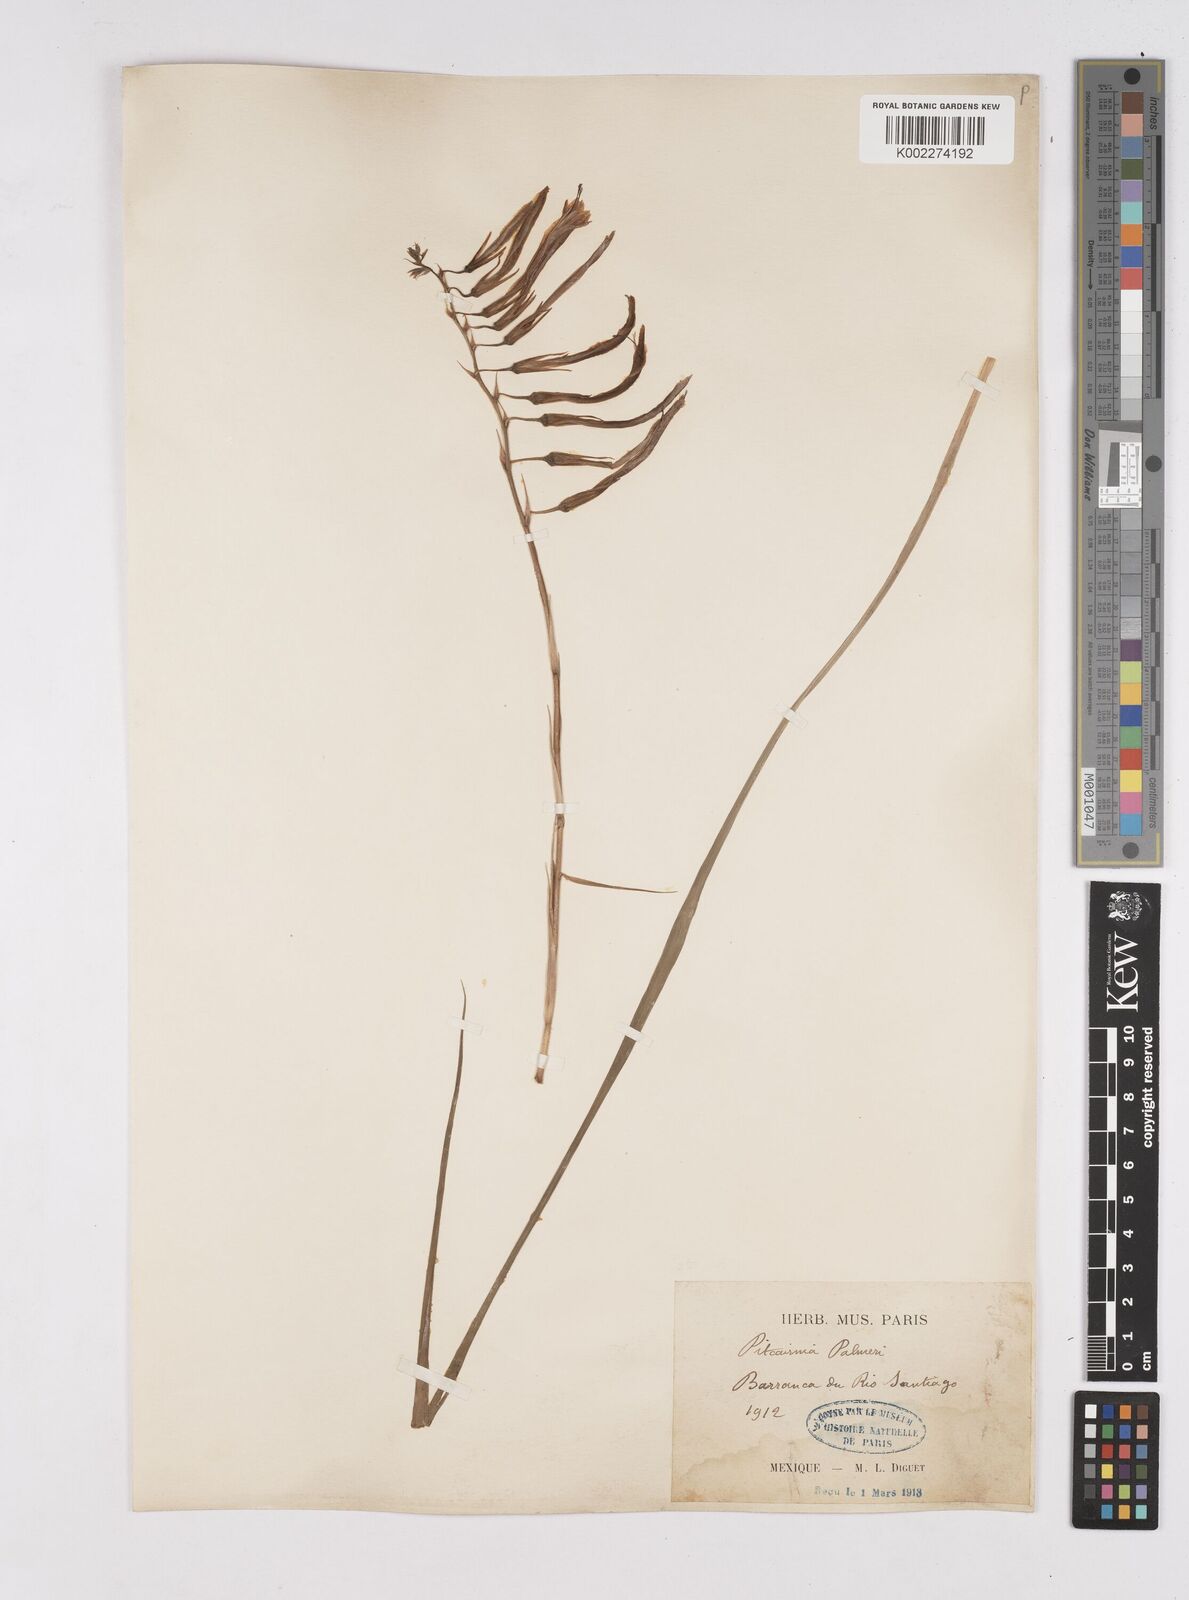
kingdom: Plantae
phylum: Tracheophyta
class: Liliopsida
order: Poales
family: Bromeliaceae
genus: Pitcairnia
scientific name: Pitcairnia palmeri
